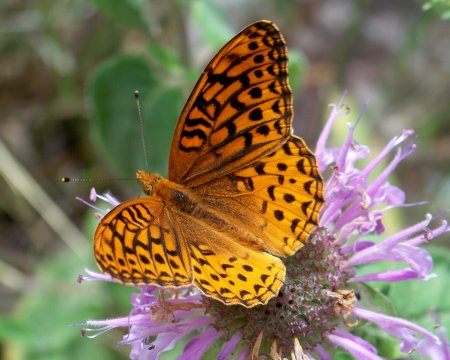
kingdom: Animalia
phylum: Arthropoda
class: Insecta
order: Lepidoptera
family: Nymphalidae
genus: Speyeria
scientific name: Speyeria atlantis
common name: Northwestern Fritillary
